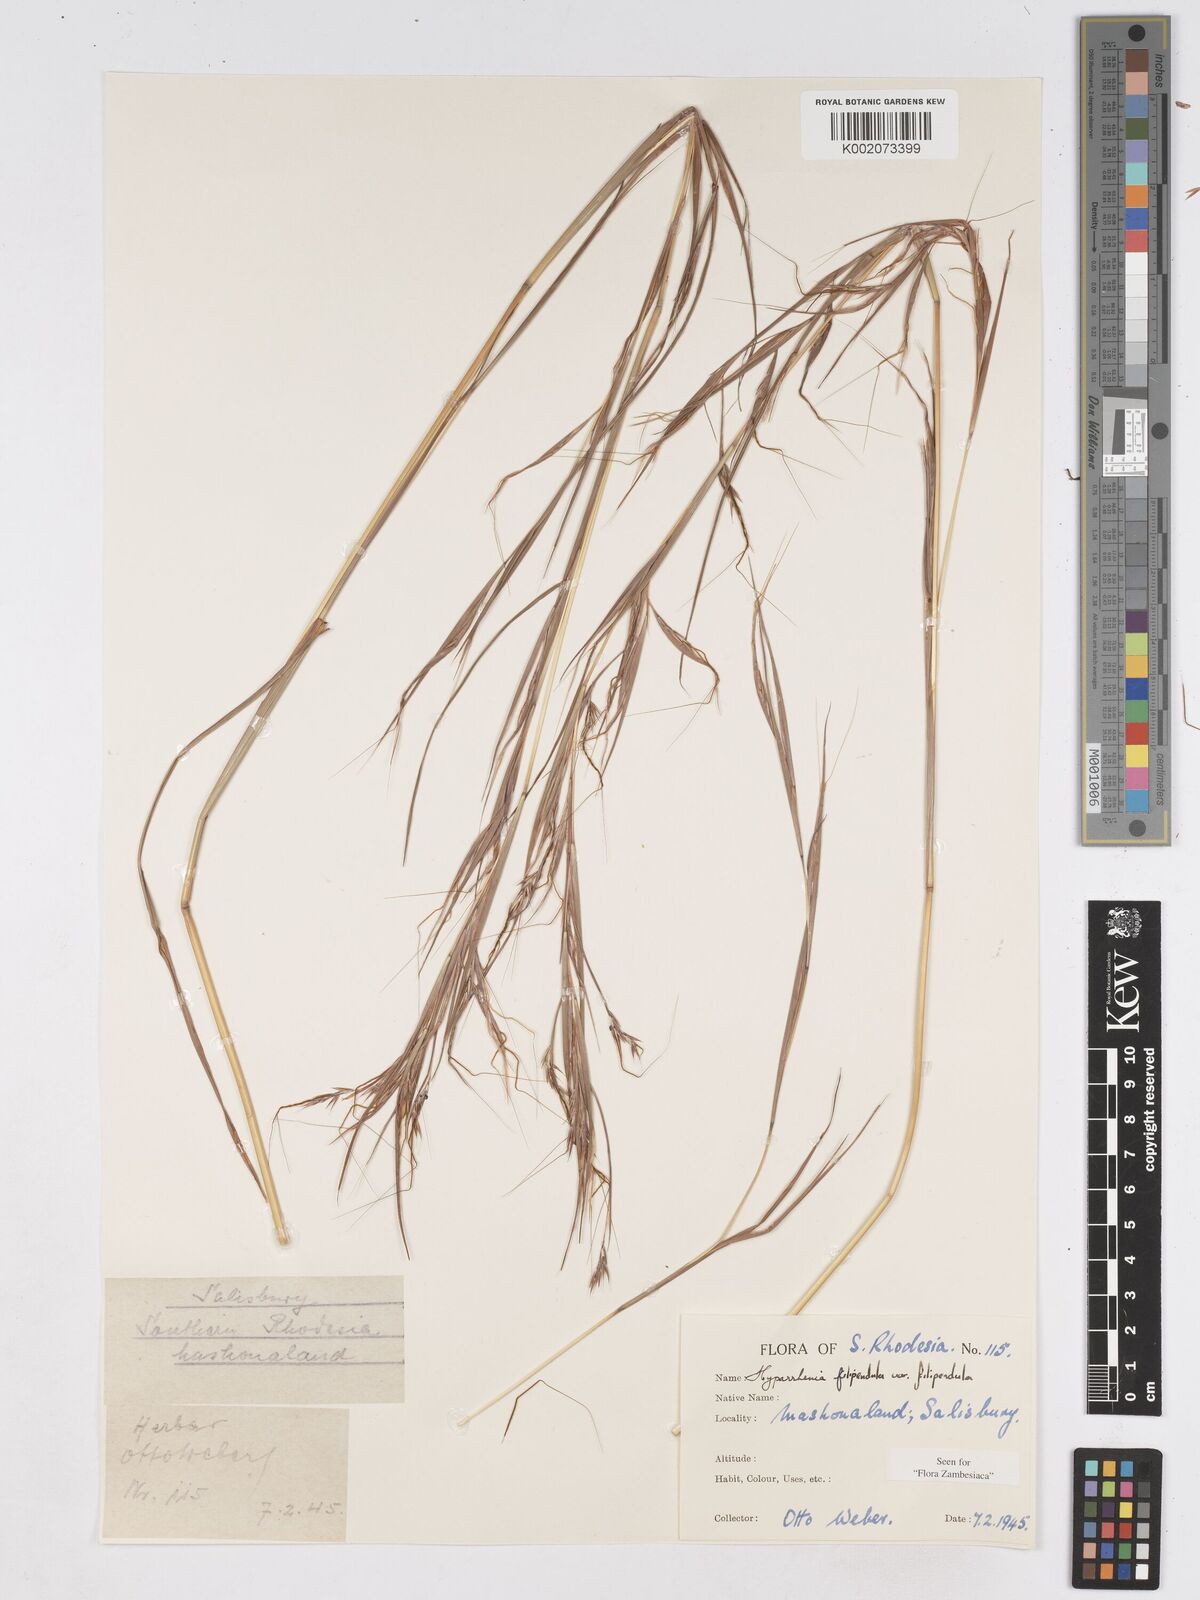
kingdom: Plantae
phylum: Tracheophyta
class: Liliopsida
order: Poales
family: Poaceae
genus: Hyparrhenia
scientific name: Hyparrhenia filipendula
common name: Tambookie grass
